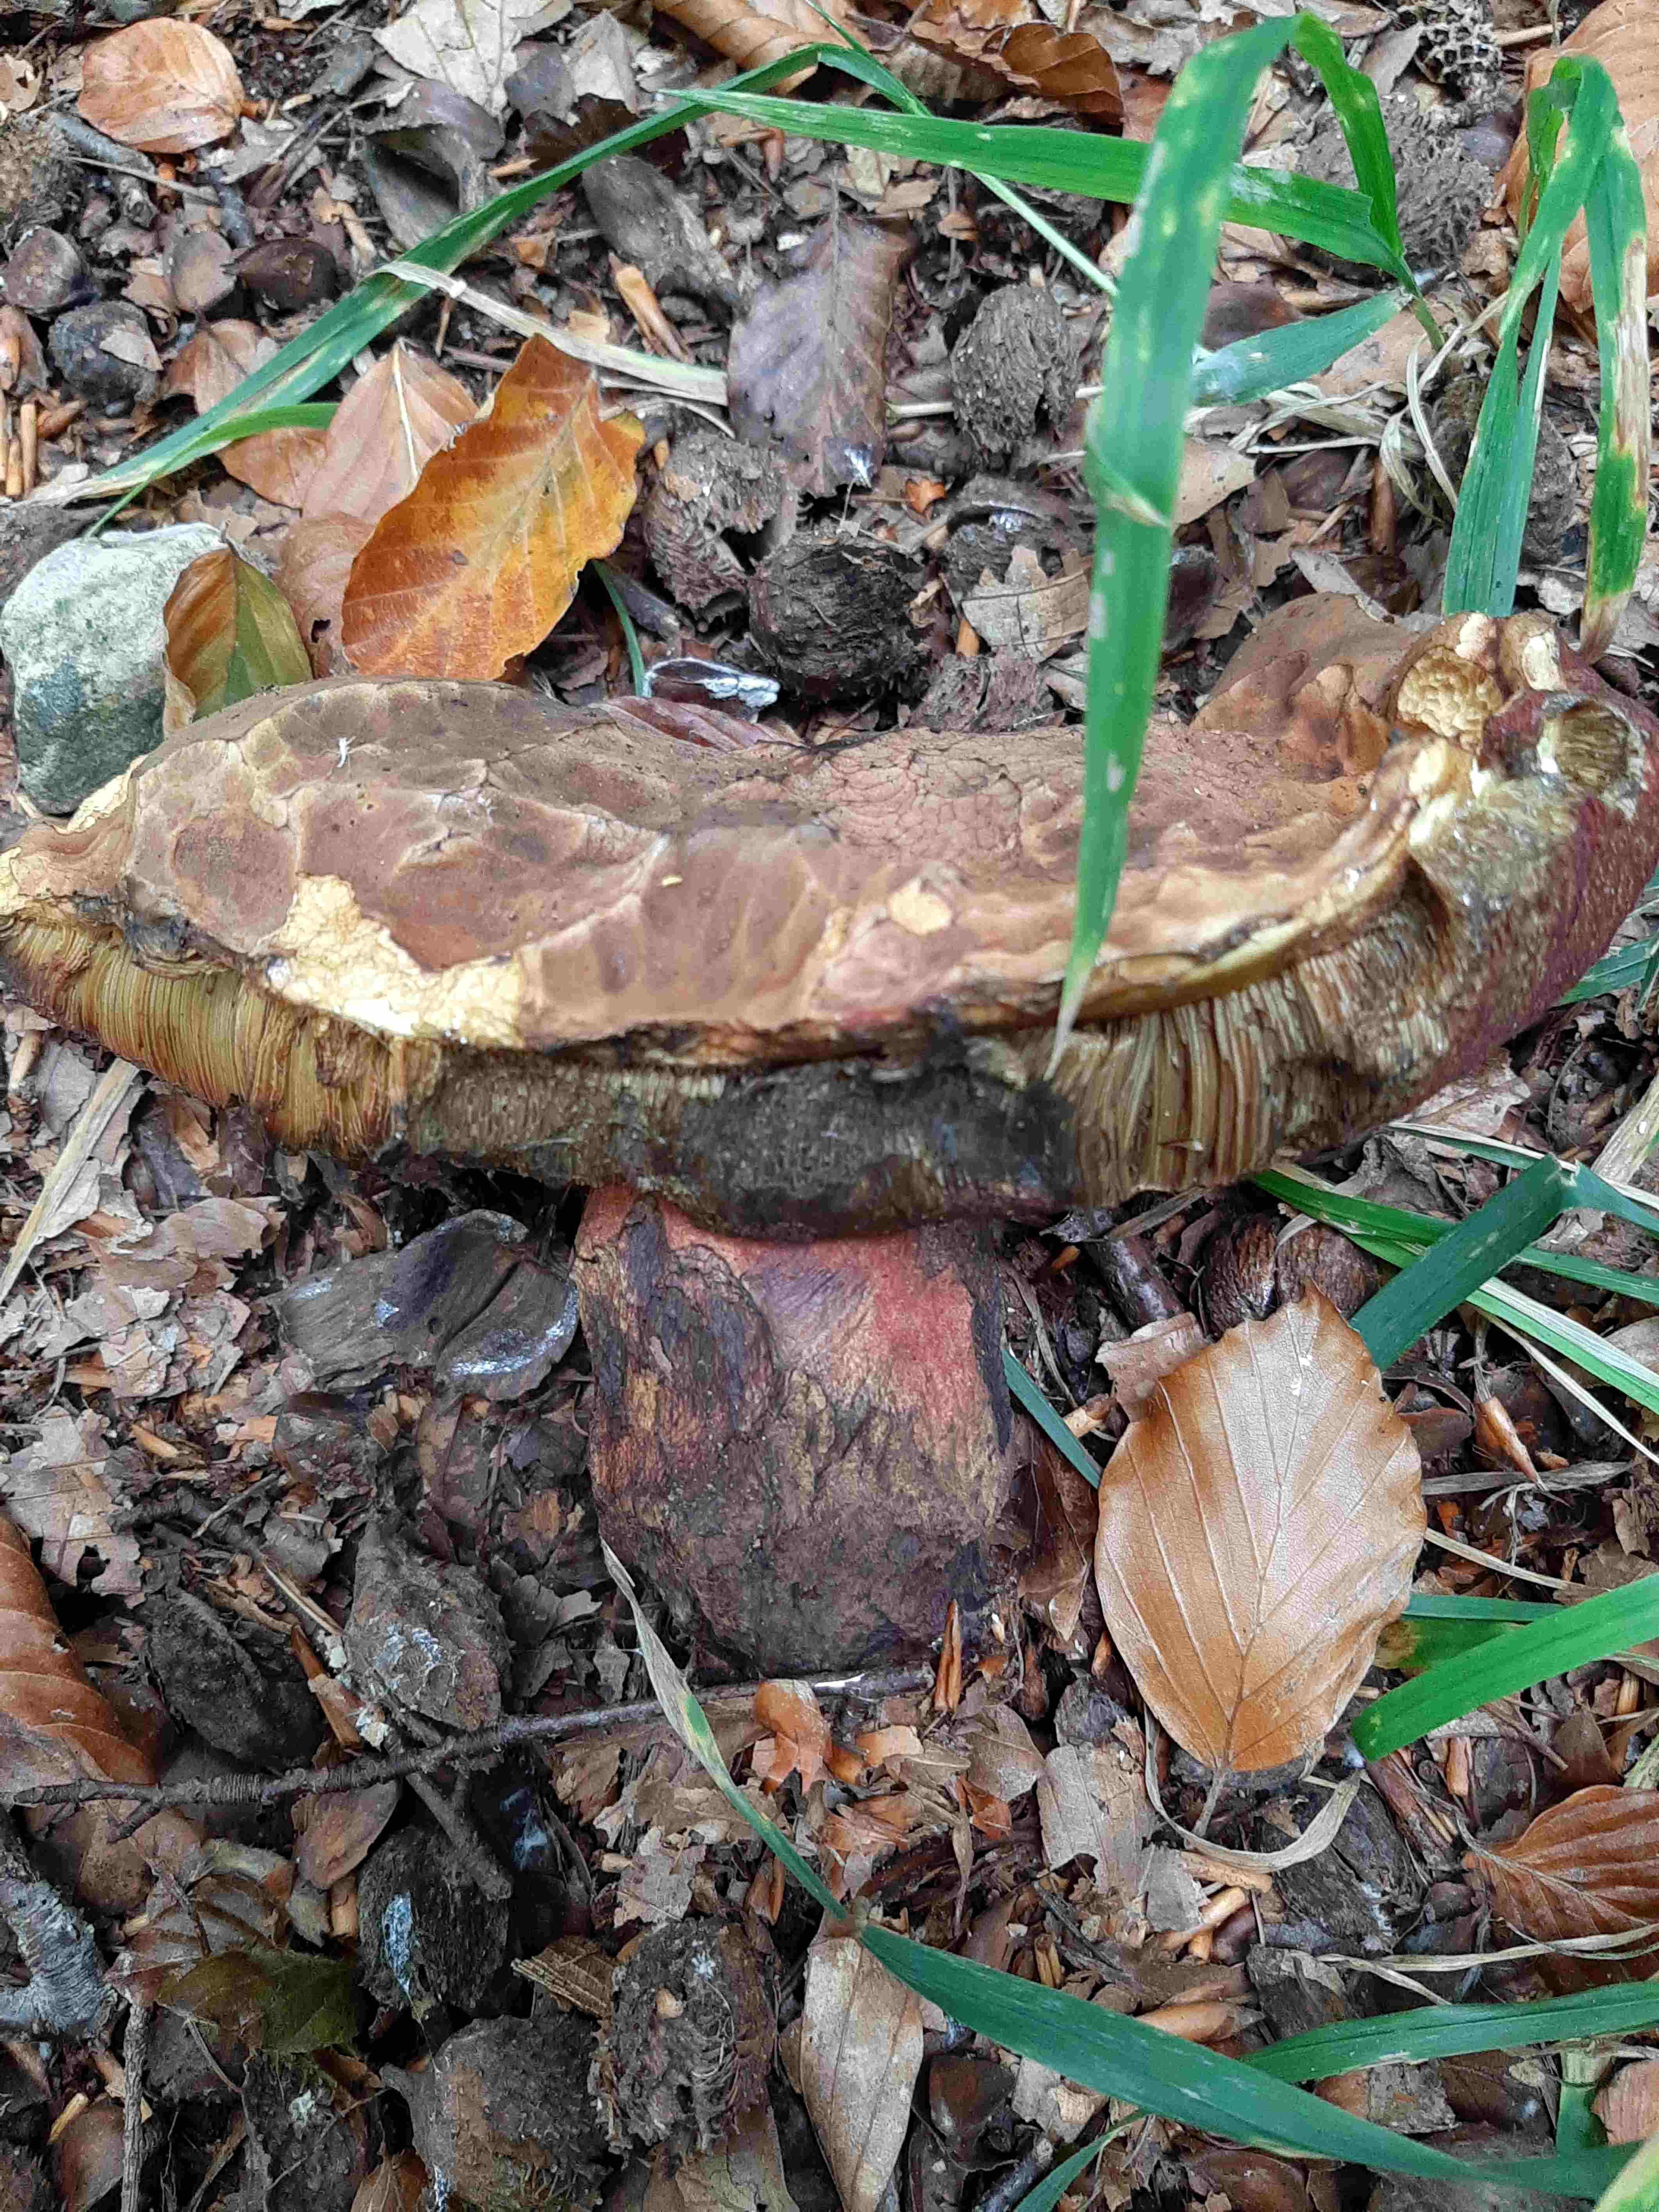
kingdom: Fungi
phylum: Basidiomycota
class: Agaricomycetes
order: Boletales
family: Boletaceae
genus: Neoboletus
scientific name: Neoboletus erythropus
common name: punktstokket indigorørhat
